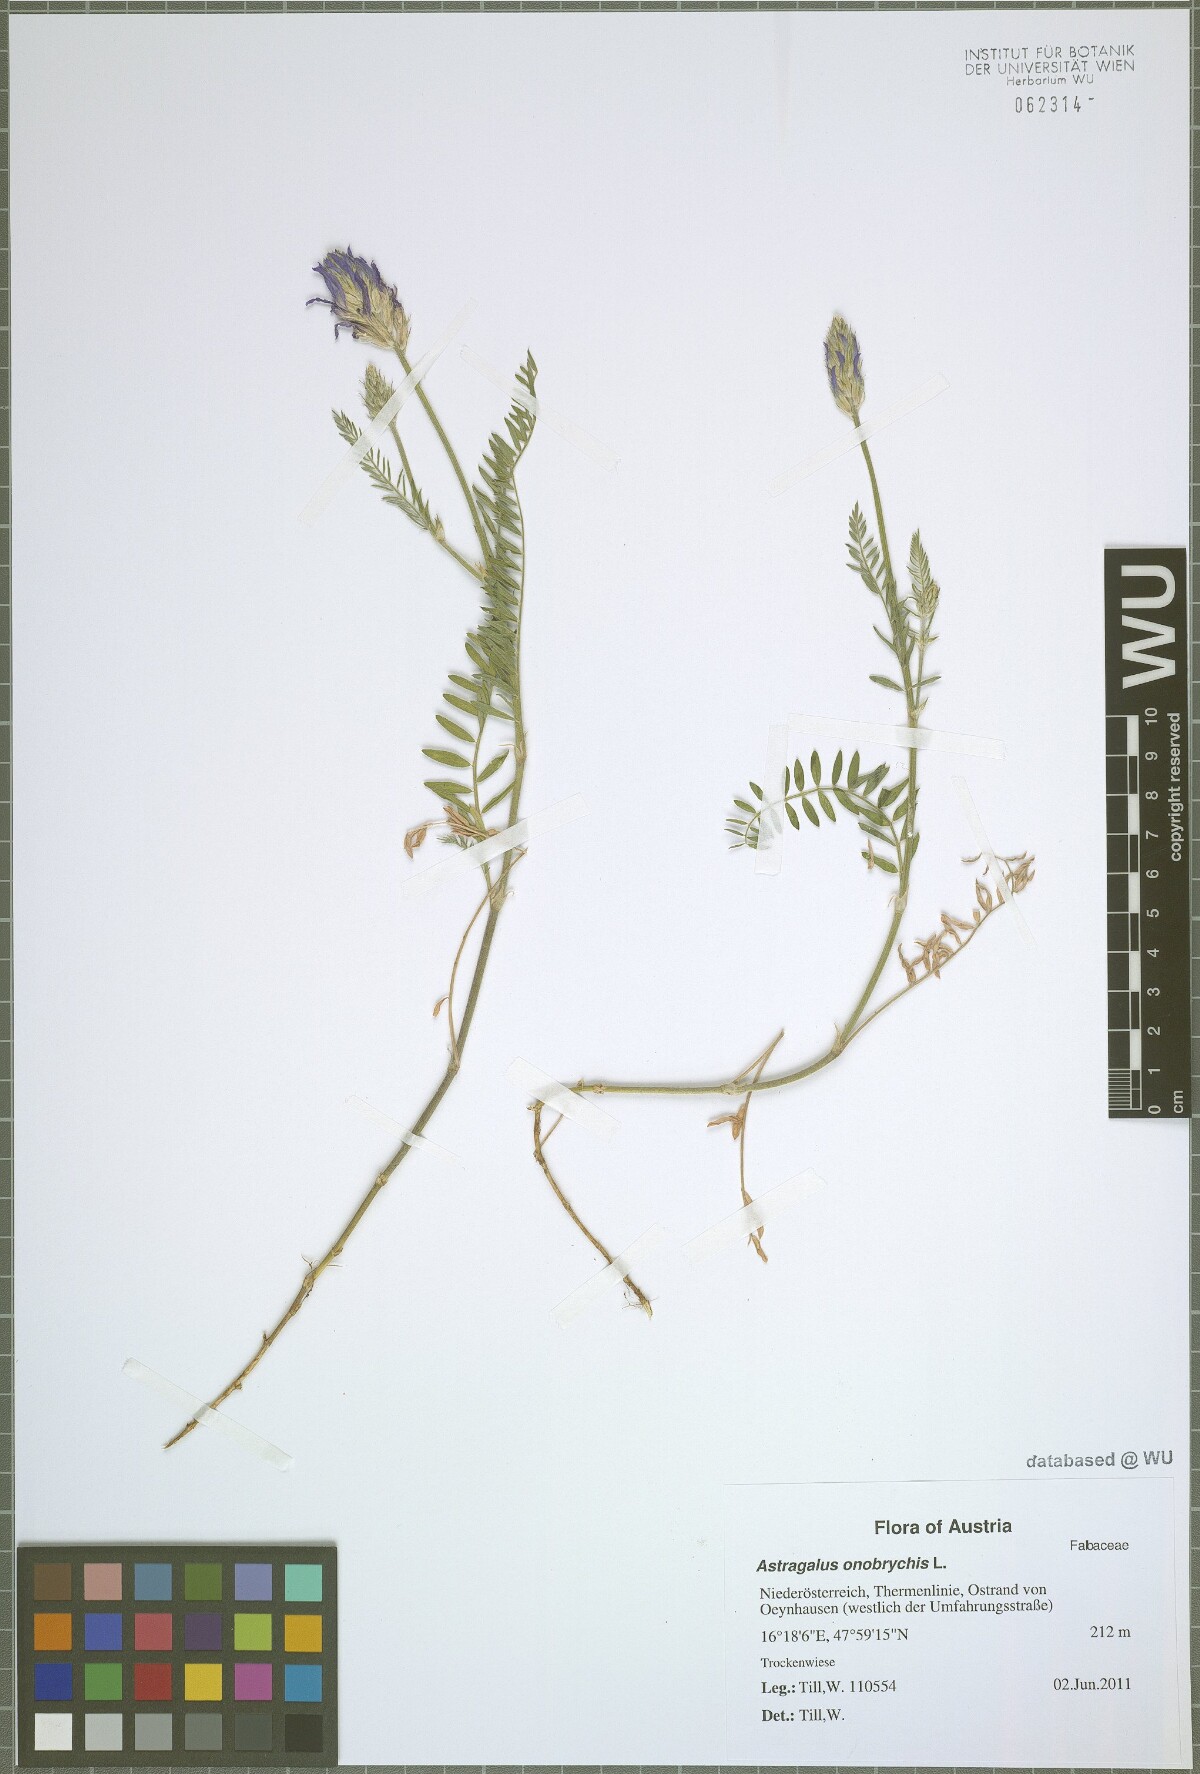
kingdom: Plantae
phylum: Tracheophyta
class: Magnoliopsida
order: Fabales
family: Fabaceae
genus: Astragalus
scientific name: Astragalus onobrychis
